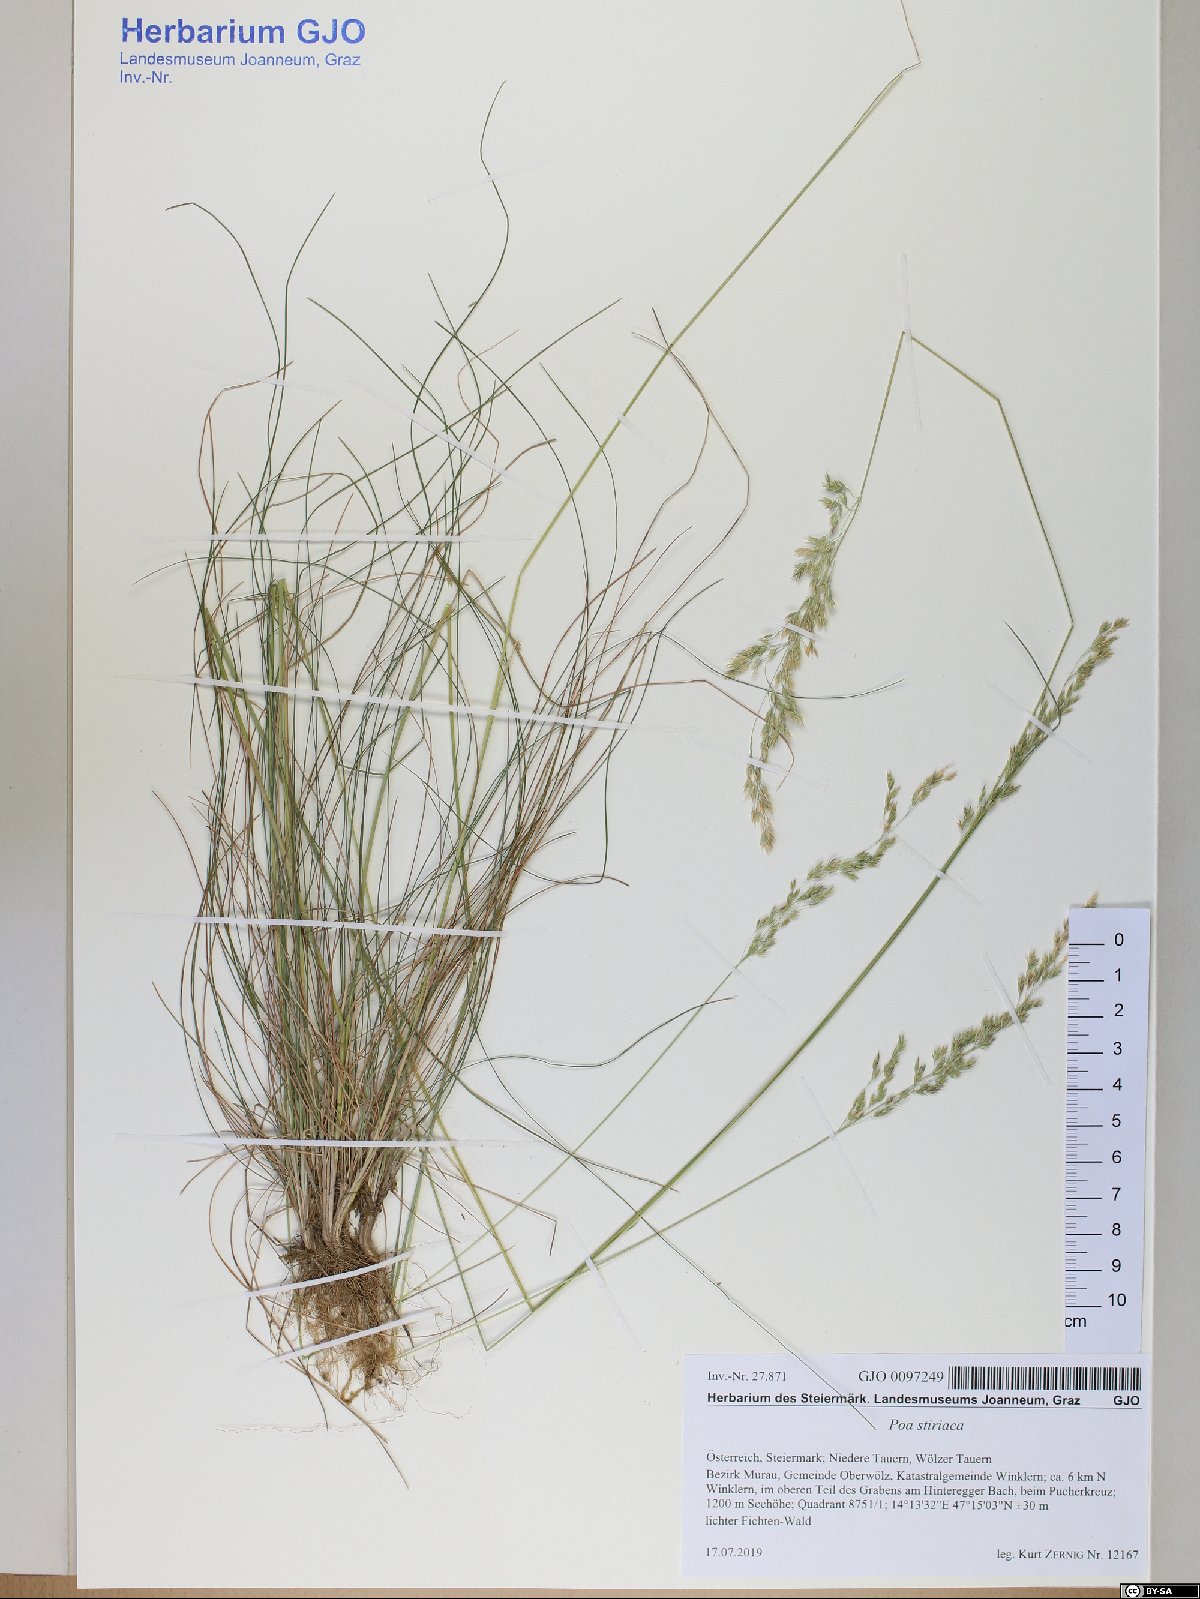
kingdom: Plantae
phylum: Tracheophyta
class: Liliopsida
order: Poales
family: Poaceae
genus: Poa
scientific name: Poa stiriaca
